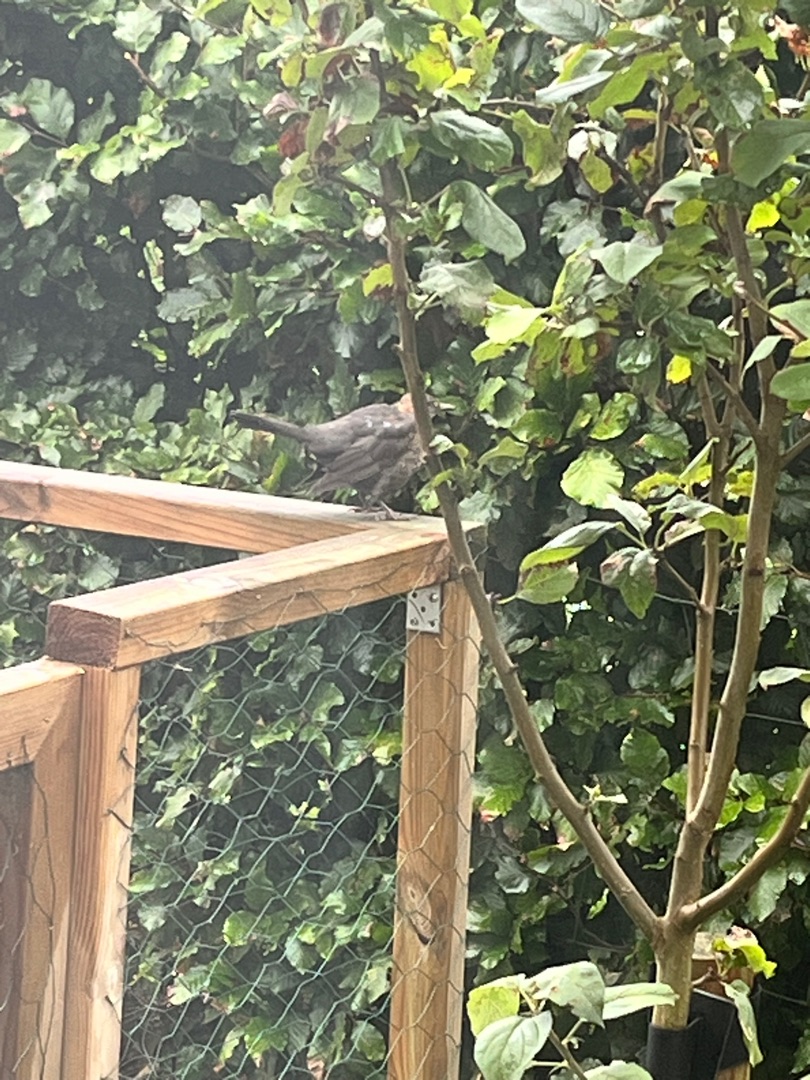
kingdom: Animalia
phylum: Chordata
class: Aves
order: Passeriformes
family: Turdidae
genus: Turdus
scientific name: Turdus merula
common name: Solsort
